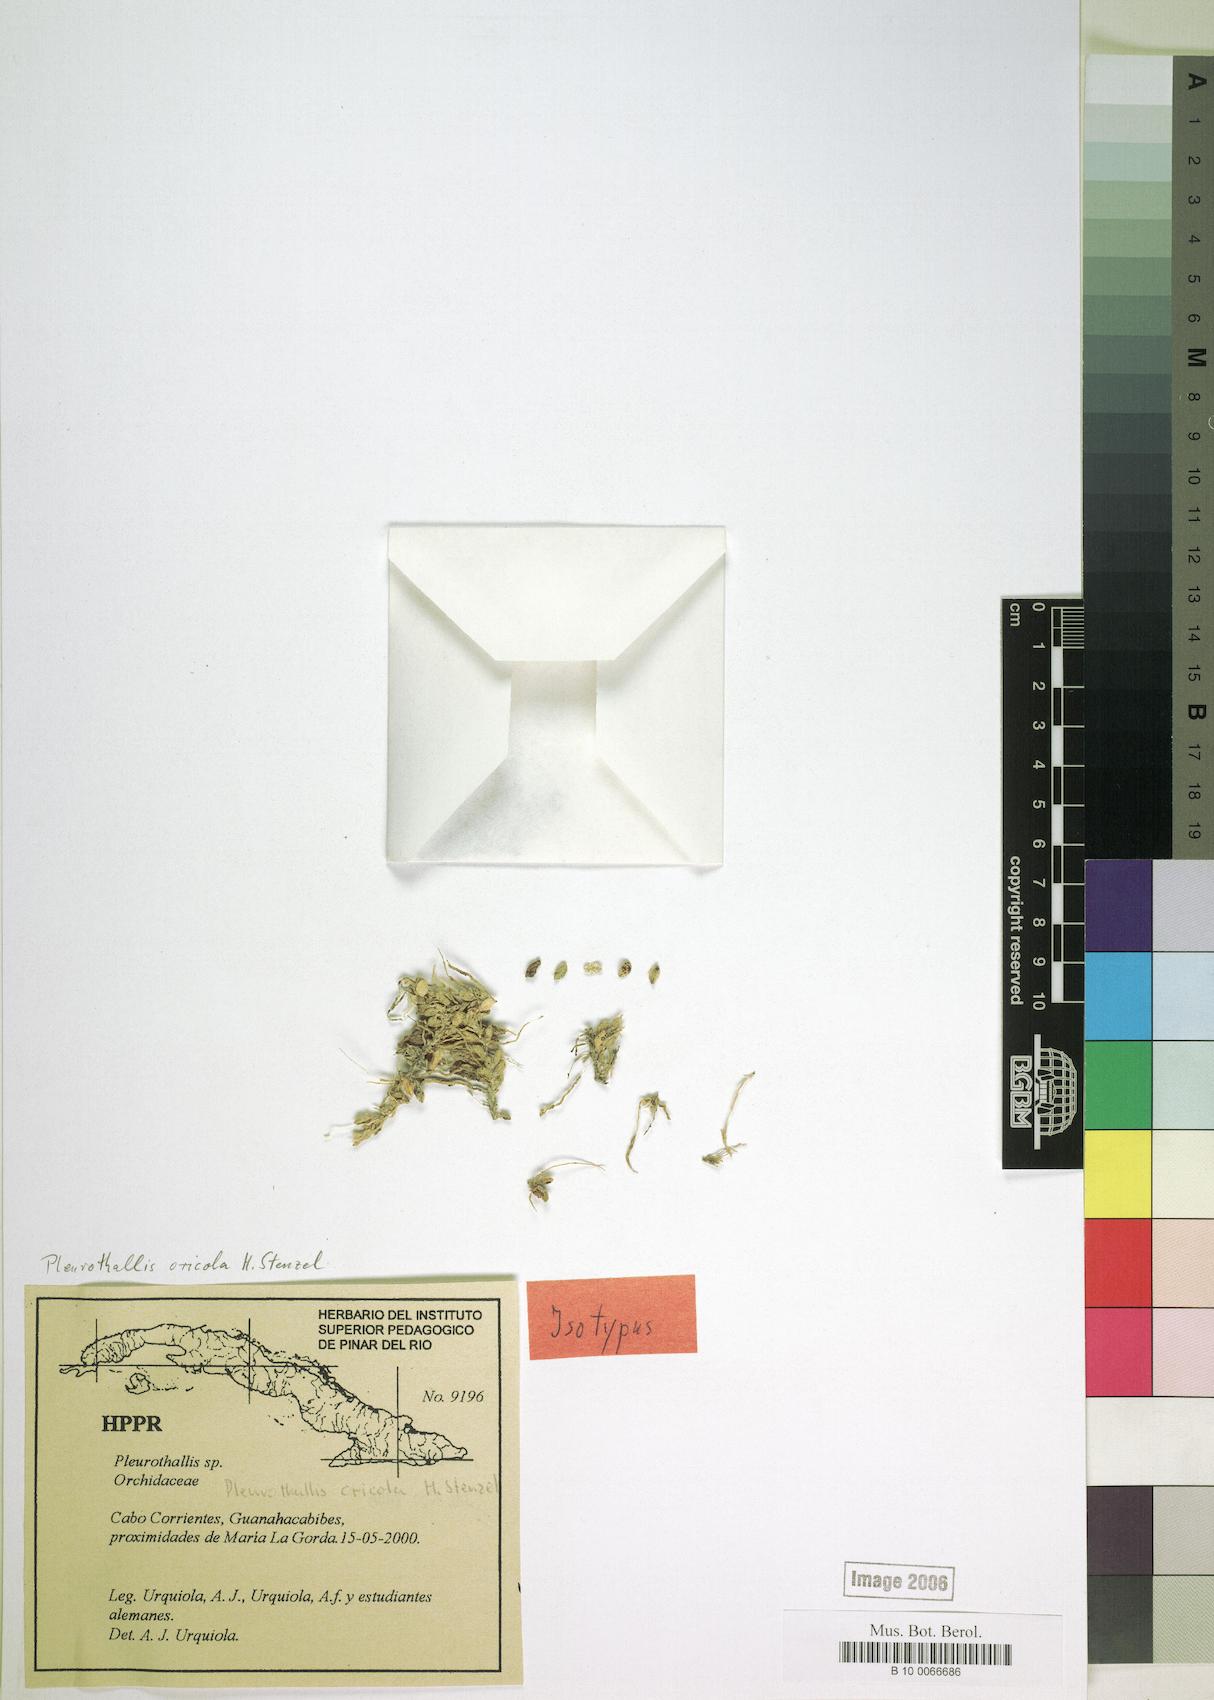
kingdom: Plantae
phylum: Tracheophyta
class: Liliopsida
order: Asparagales
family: Orchidaceae
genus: Acianthera
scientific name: Acianthera oricola
